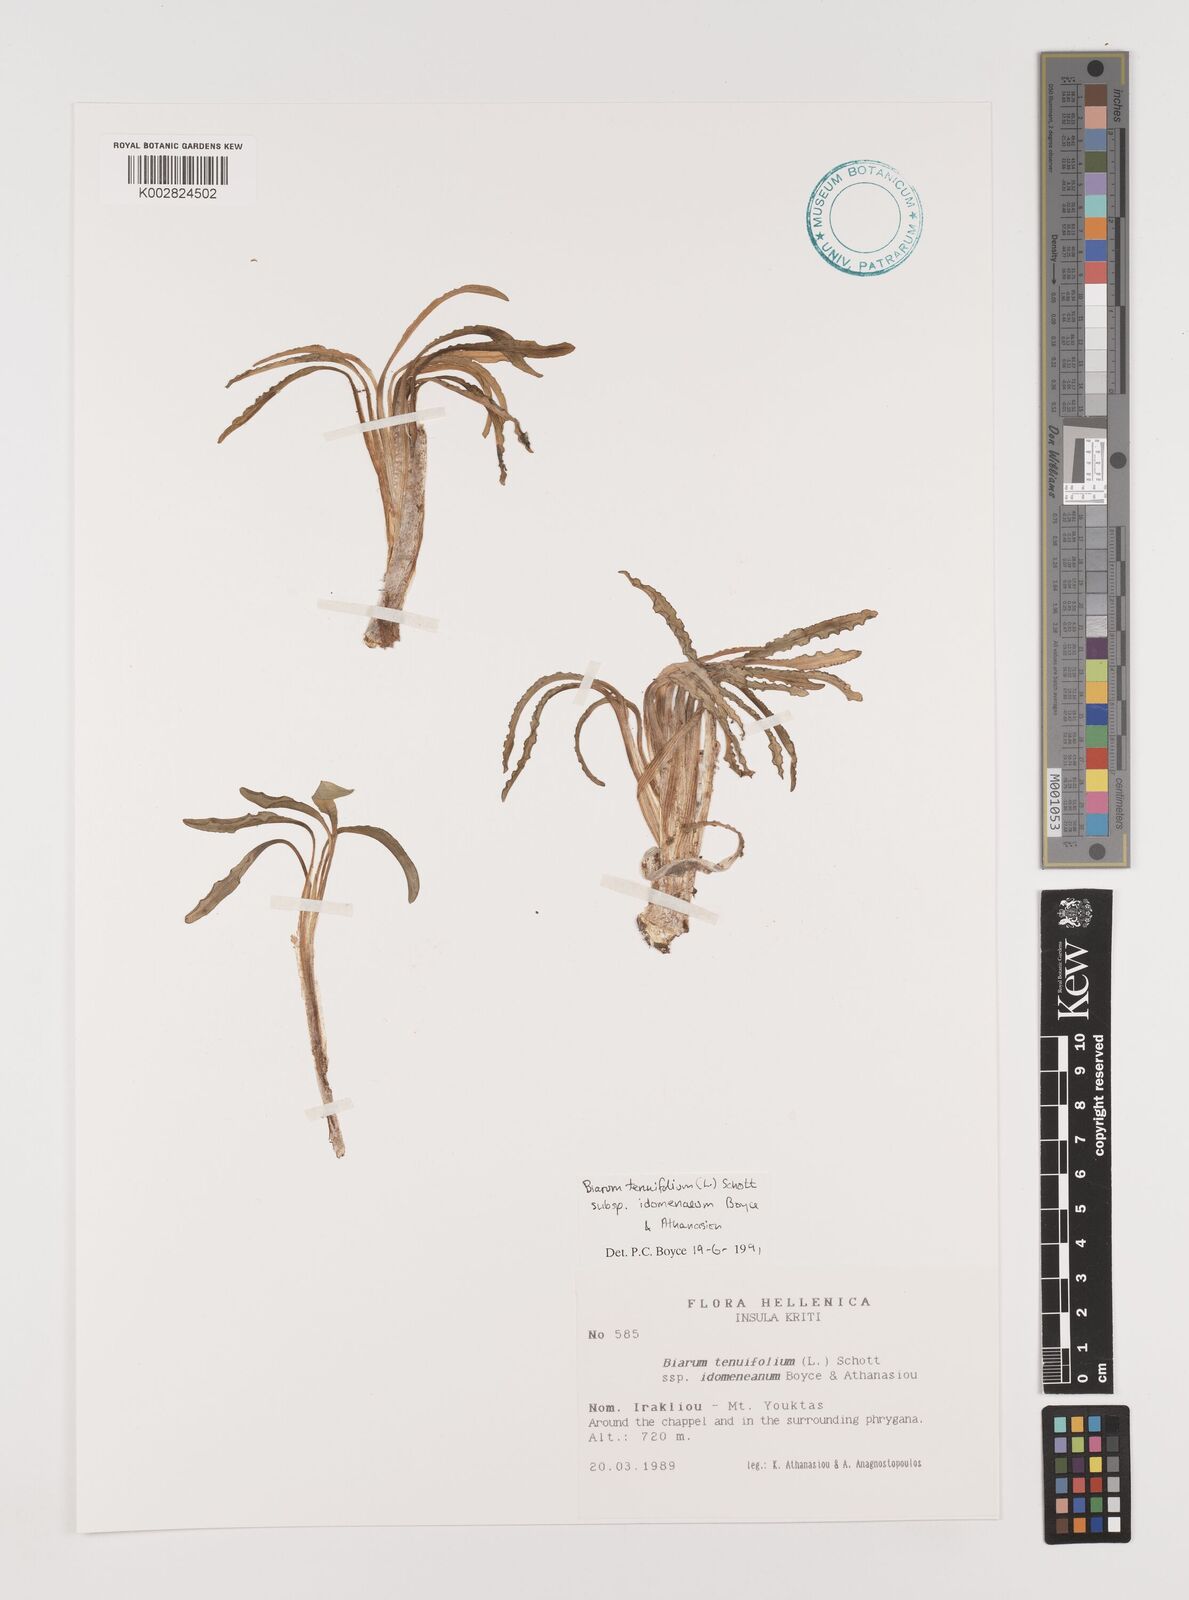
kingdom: Plantae
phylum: Tracheophyta
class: Liliopsida
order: Alismatales
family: Araceae
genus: Biarum
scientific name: Biarum tenuifolium
